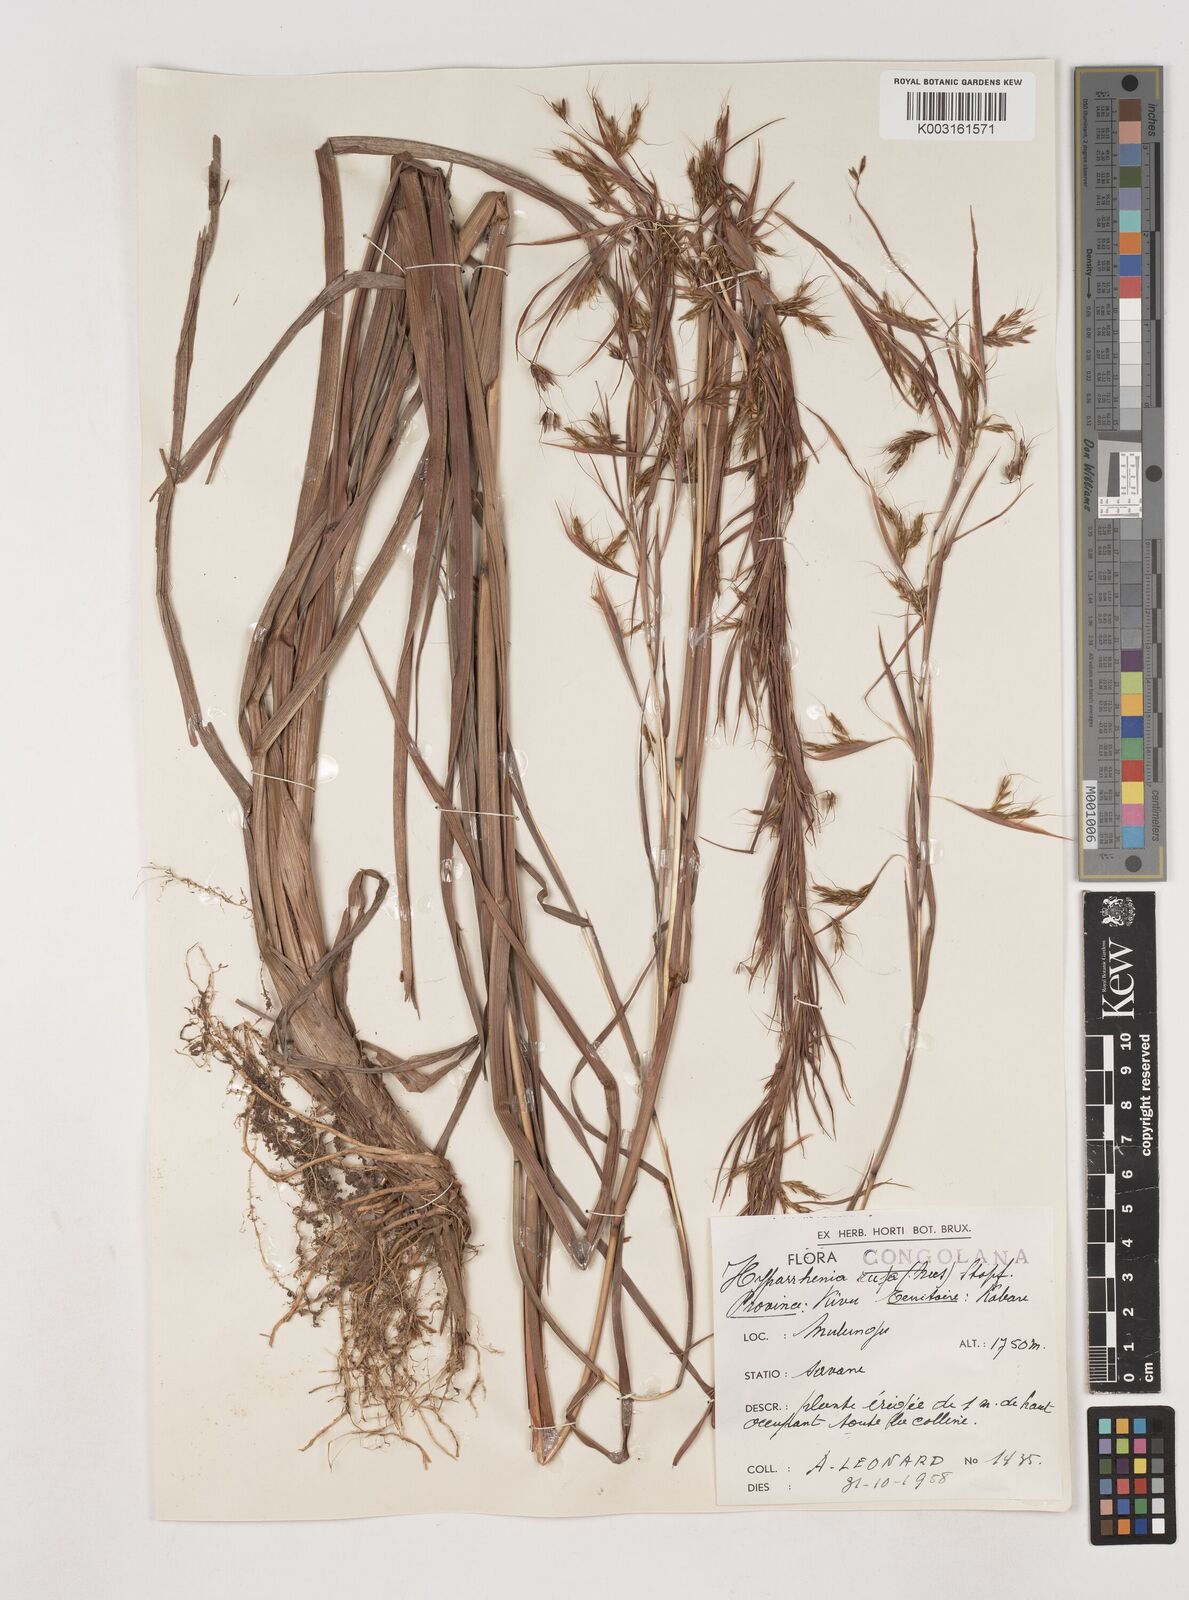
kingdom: Plantae
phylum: Tracheophyta
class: Liliopsida
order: Poales
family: Poaceae
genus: Hyparrhenia
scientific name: Hyparrhenia rufa
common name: Jaraguagrass
